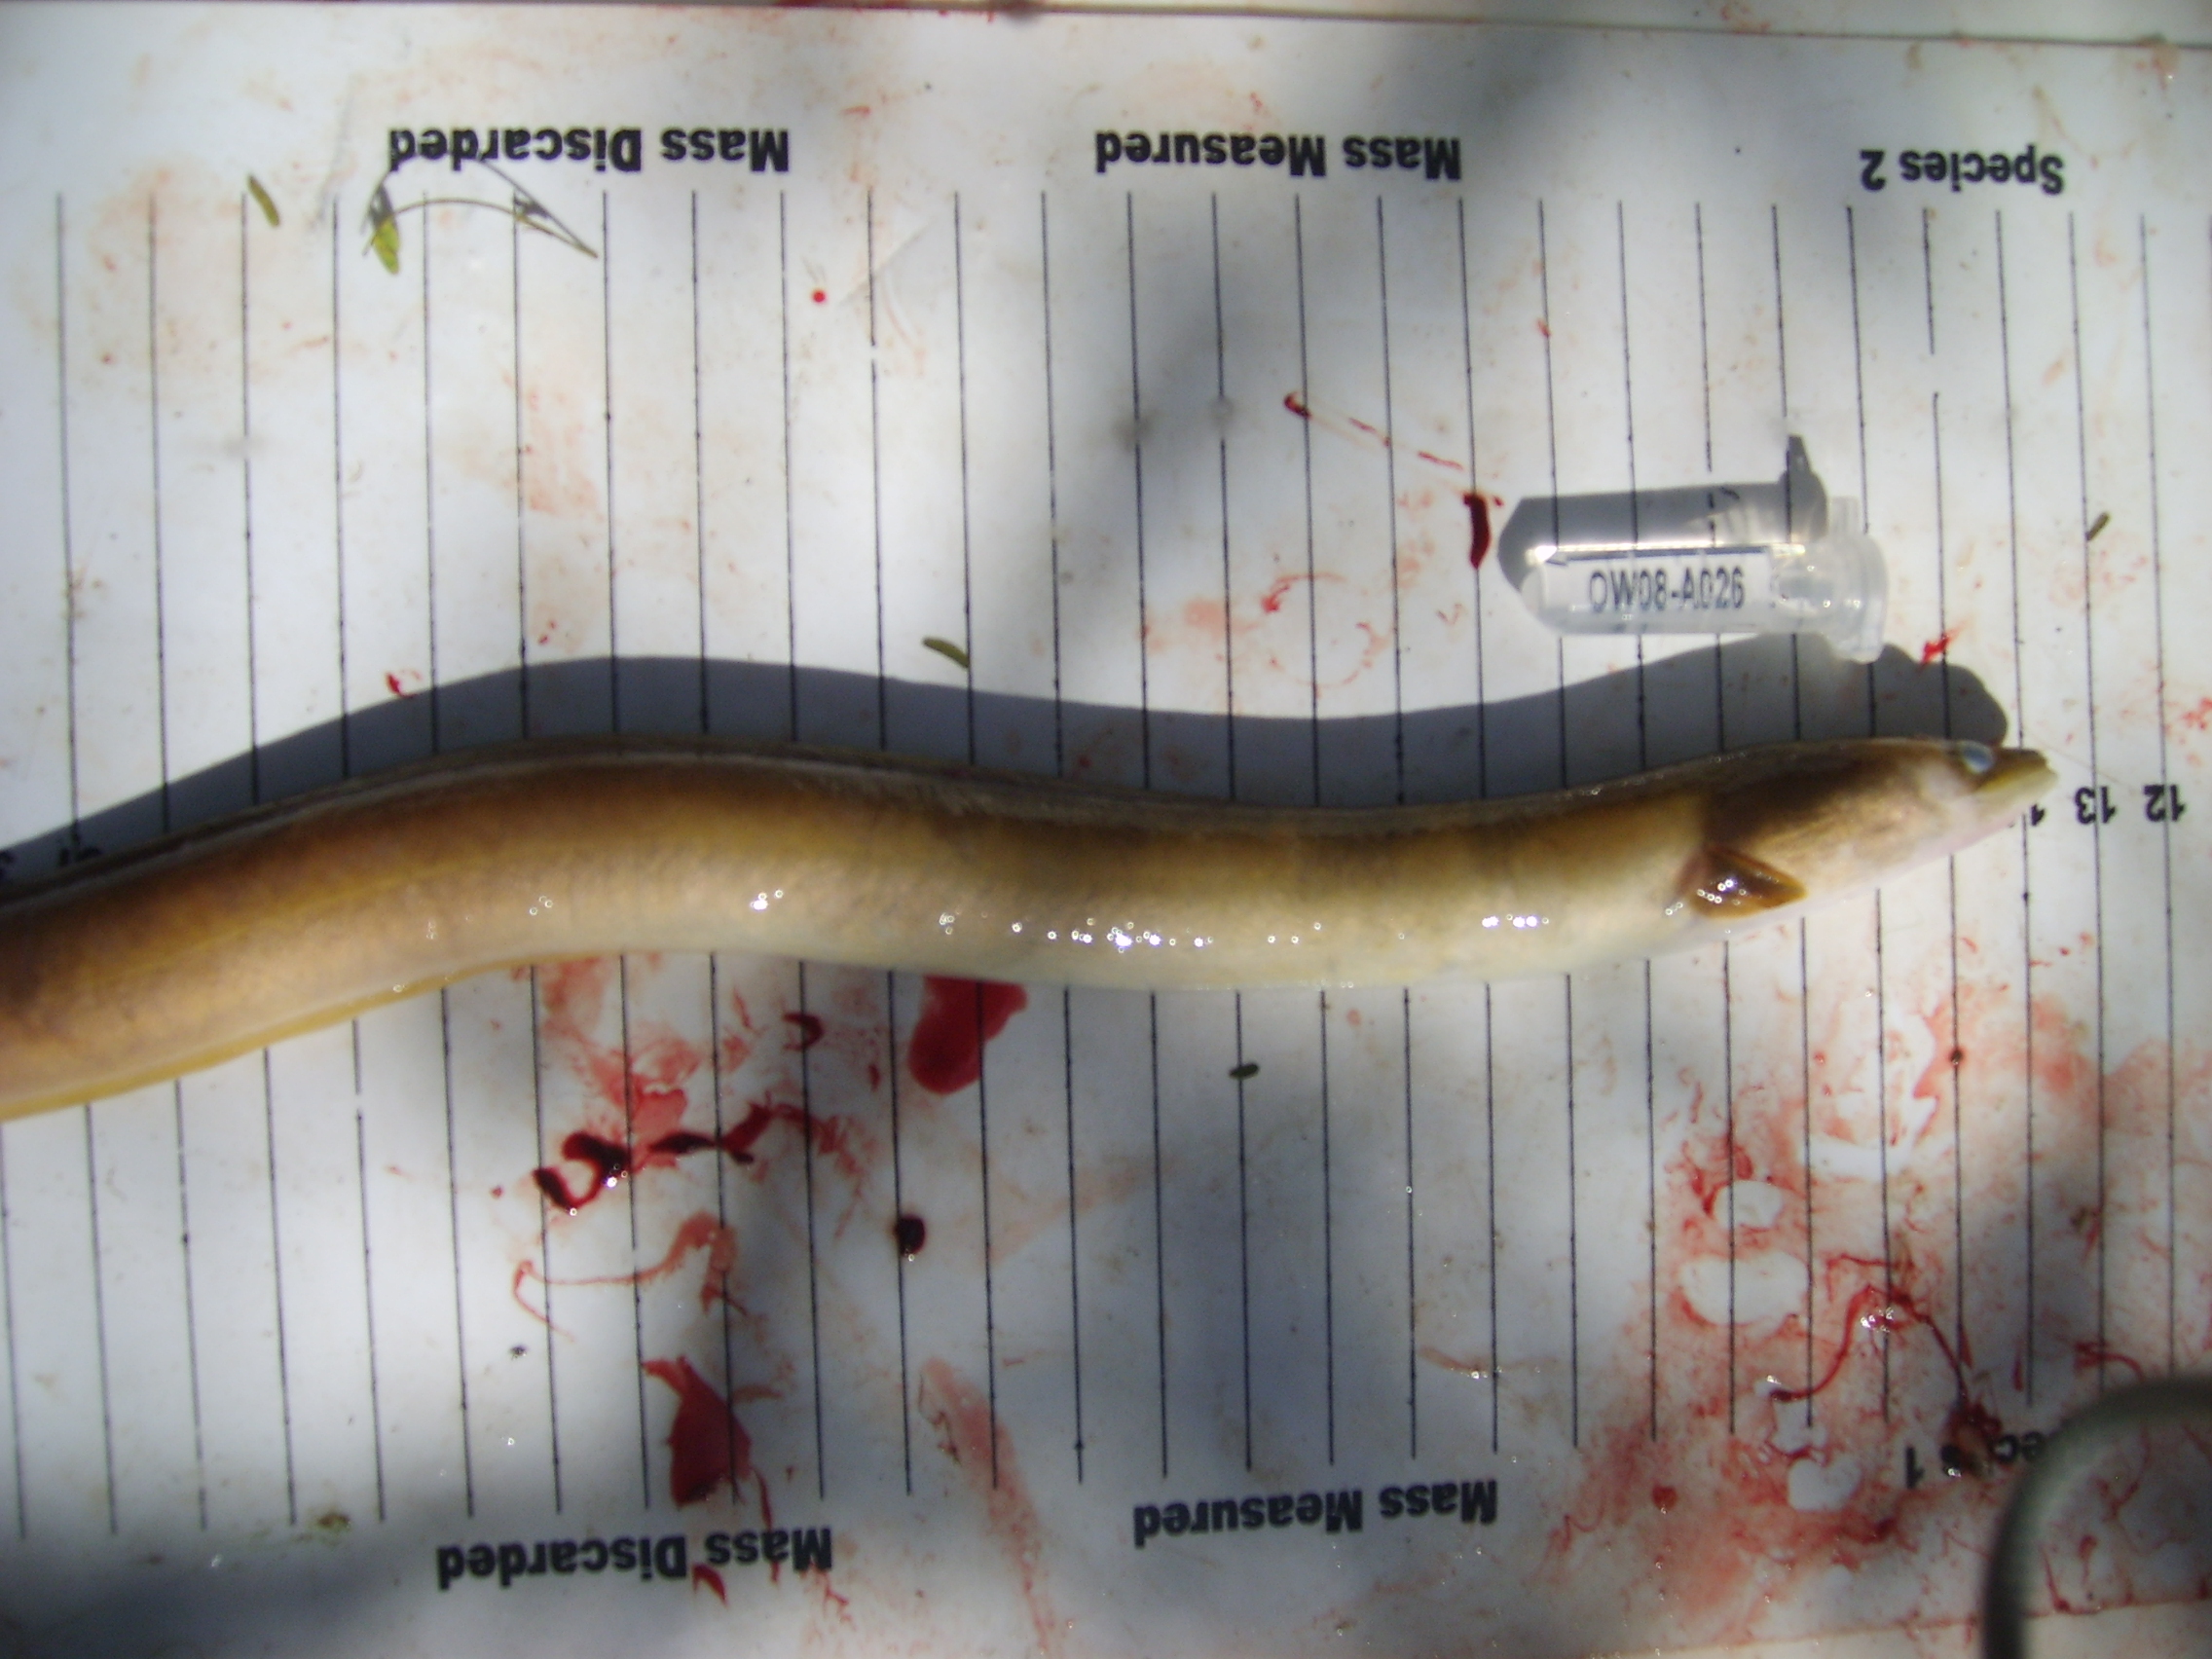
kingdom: Animalia
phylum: Chordata
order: Anguilliformes
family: Anguillidae
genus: Anguilla
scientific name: Anguilla mossambica
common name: African longfin eel
